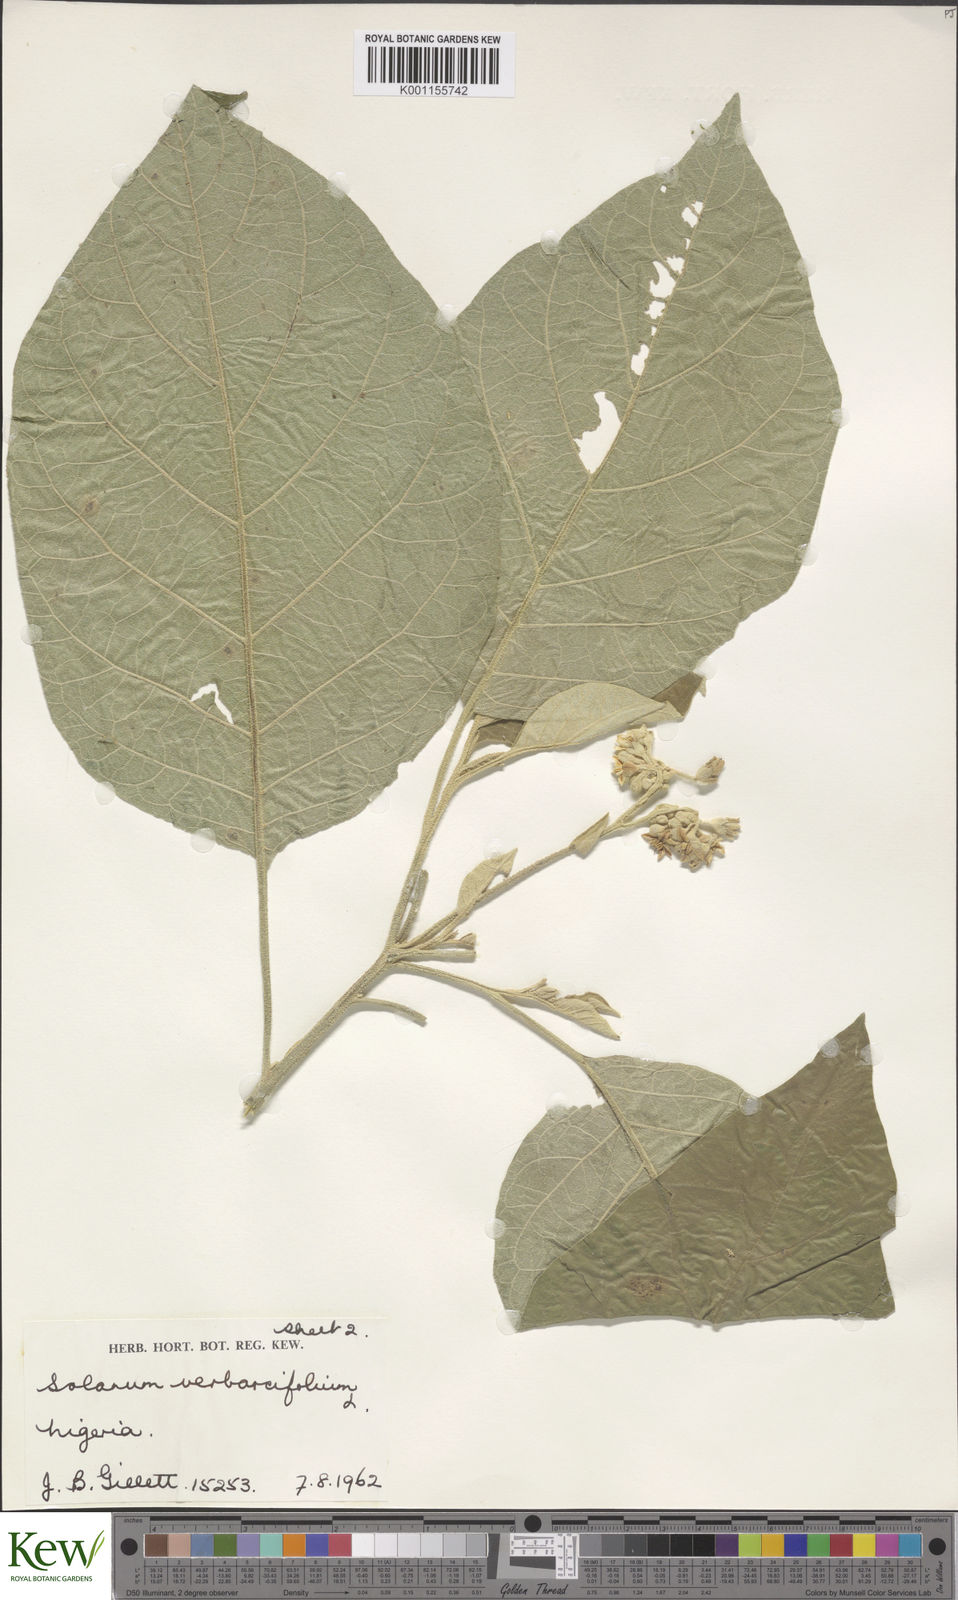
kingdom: Plantae
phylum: Tracheophyta
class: Magnoliopsida
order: Solanales
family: Solanaceae
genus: Solanum
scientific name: Solanum erianthum
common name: Tobacco-tree
